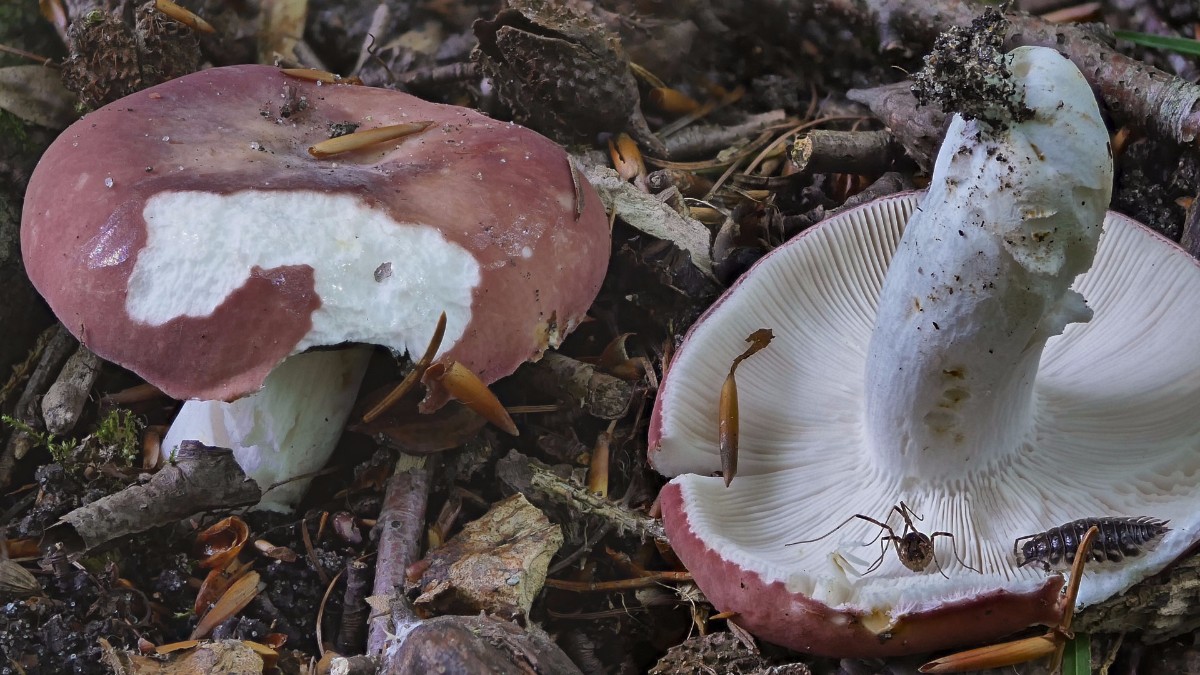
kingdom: Fungi
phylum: Basidiomycota
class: Agaricomycetes
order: Russulales
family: Russulaceae
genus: Russula
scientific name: Russula vesca
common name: spiselig skørhat
